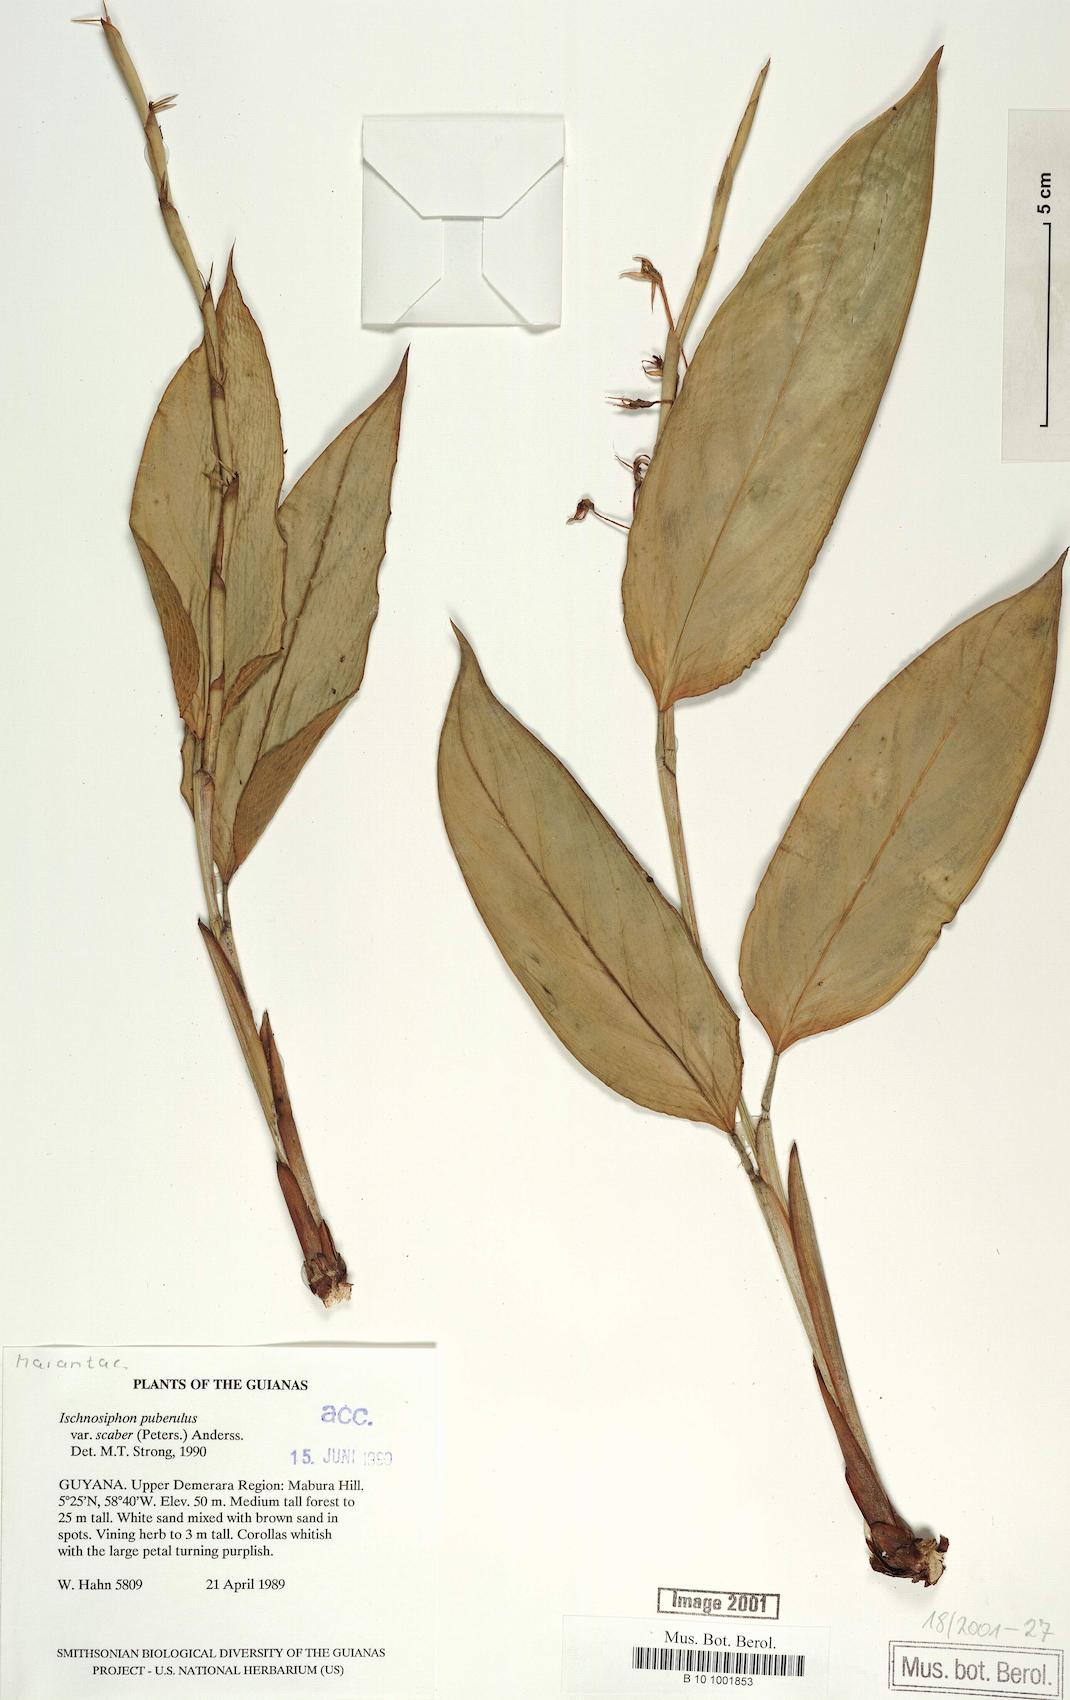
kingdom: Plantae
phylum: Tracheophyta
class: Liliopsida
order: Zingiberales
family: Marantaceae
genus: Ischnosiphon
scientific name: Ischnosiphon puberulus
